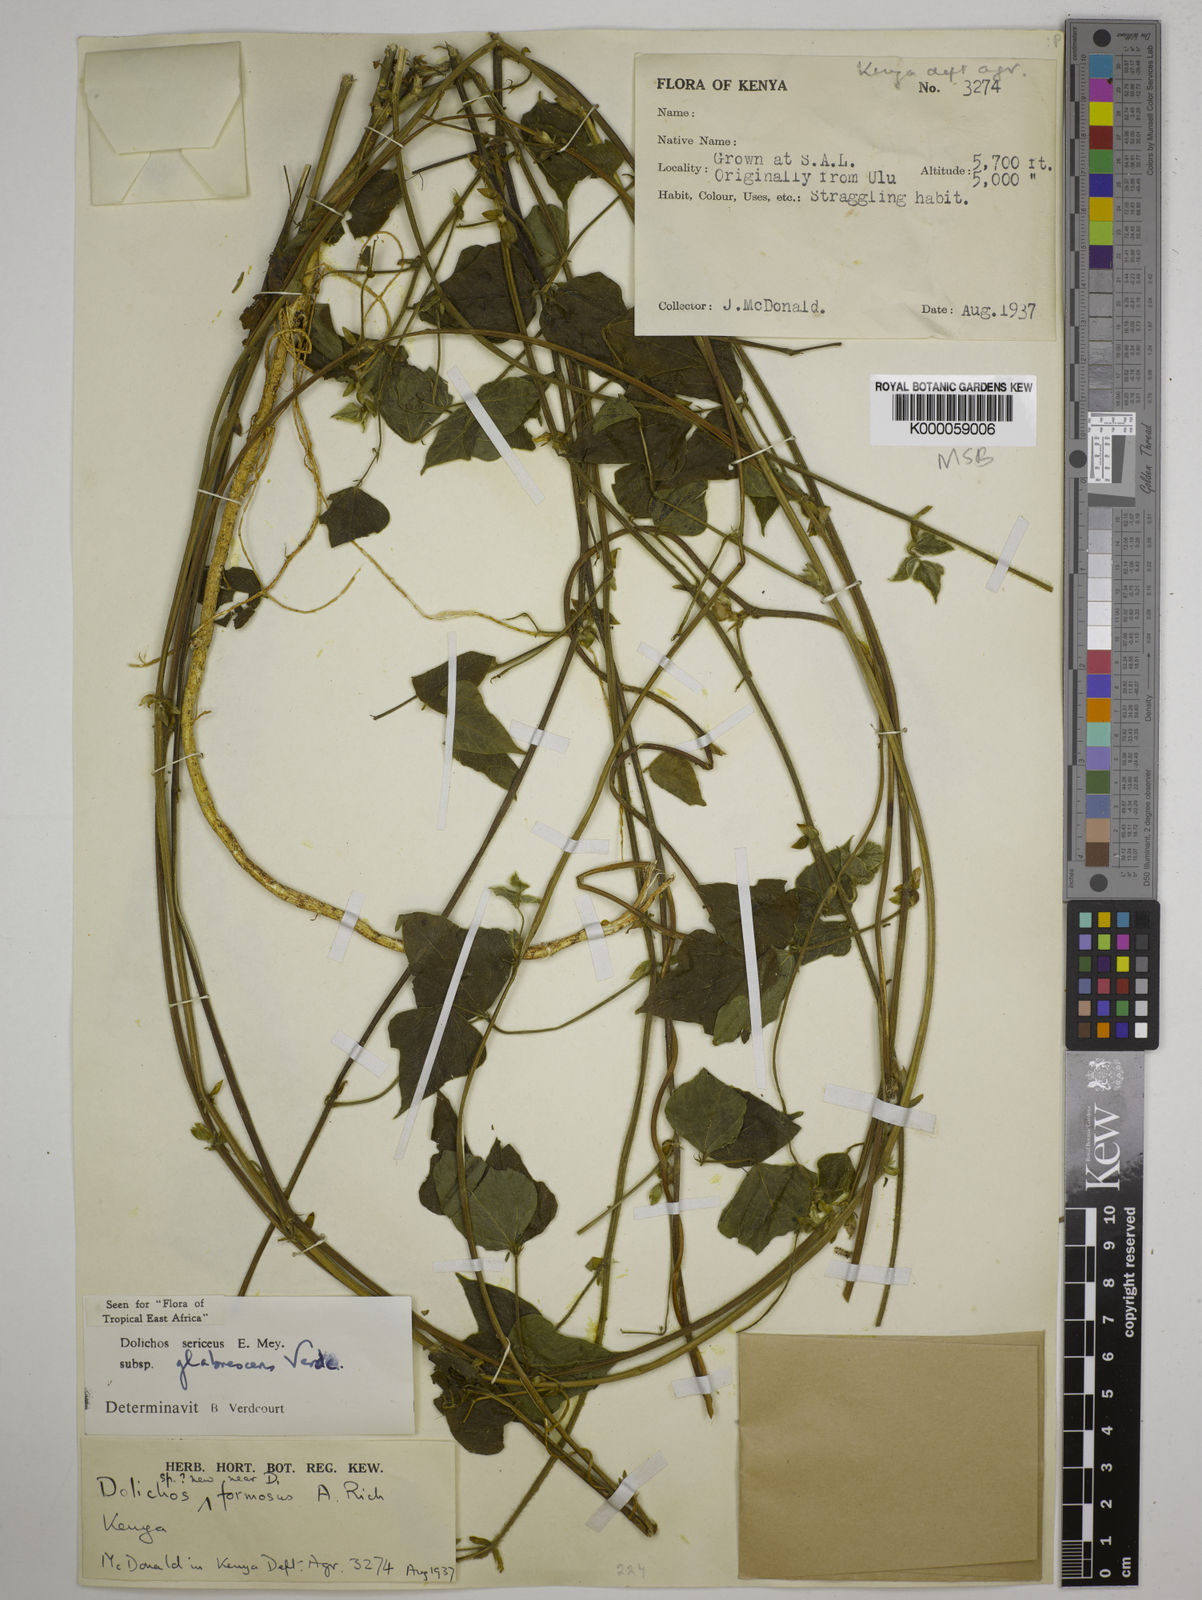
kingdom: Plantae
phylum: Tracheophyta
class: Magnoliopsida
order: Fabales
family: Fabaceae
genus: Dolichos
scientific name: Dolichos sericeus
